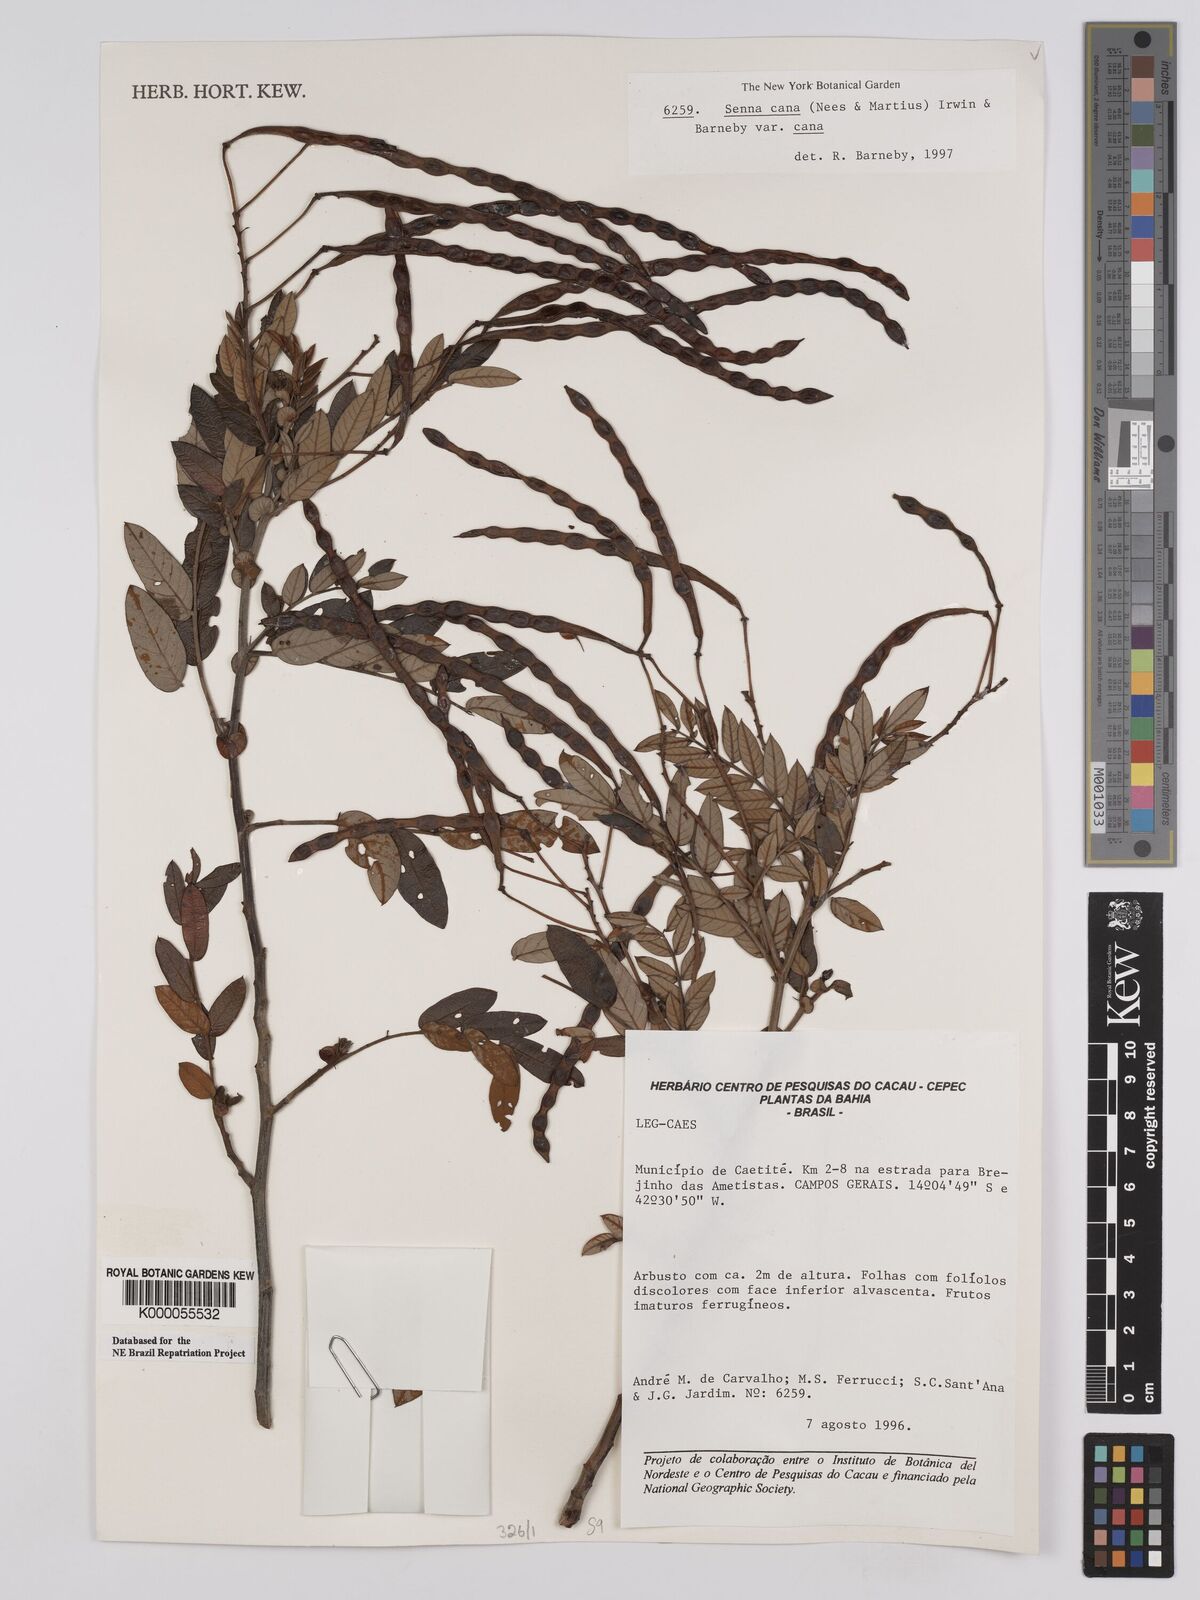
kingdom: Plantae
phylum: Tracheophyta
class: Magnoliopsida
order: Fabales
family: Fabaceae
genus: Senna
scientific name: Senna cana
